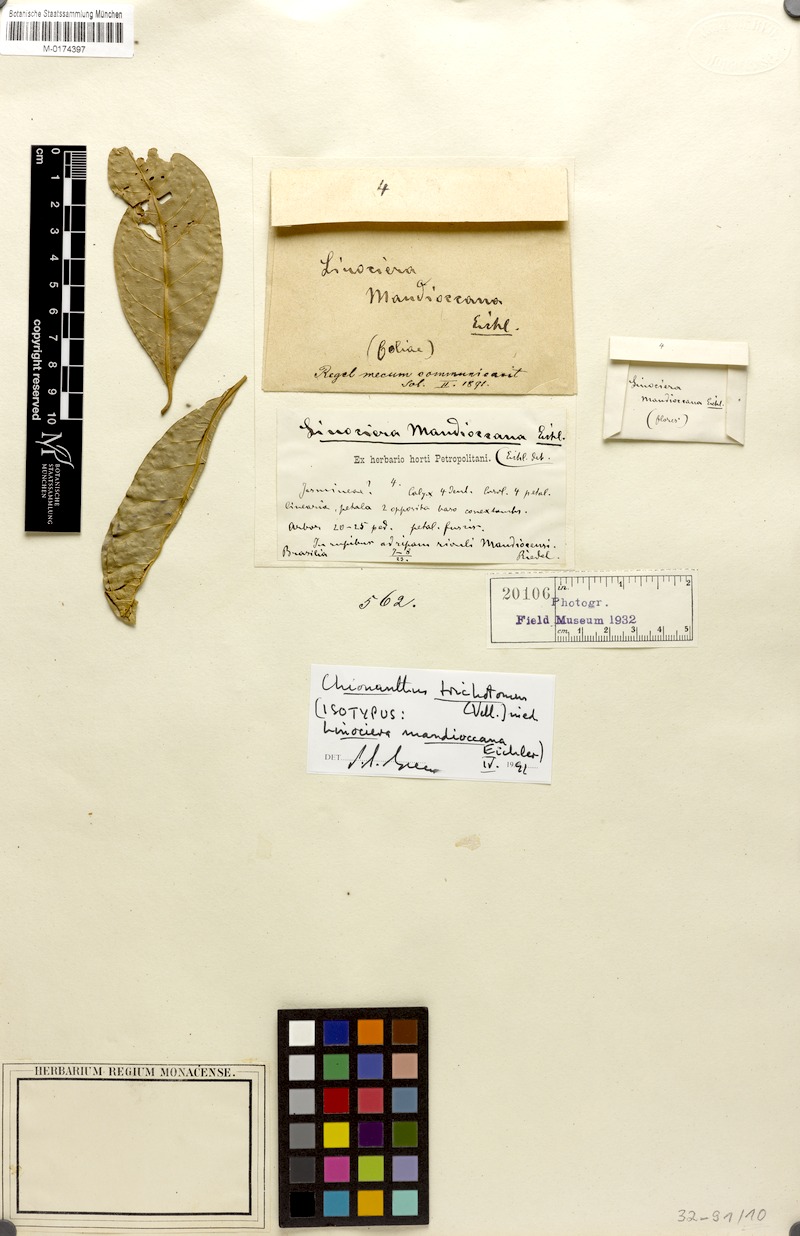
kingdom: Plantae
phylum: Tracheophyta
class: Magnoliopsida
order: Lamiales
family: Oleaceae
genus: Chionanthus
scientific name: Chionanthus filiformis
